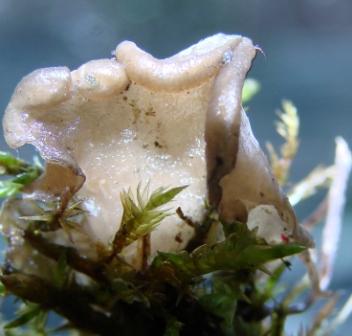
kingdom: Fungi
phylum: Basidiomycota
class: Agaricomycetes
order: Agaricales
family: Hygrophoraceae
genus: Arrhenia
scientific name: Arrhenia lobata
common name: siddende fontænehat
